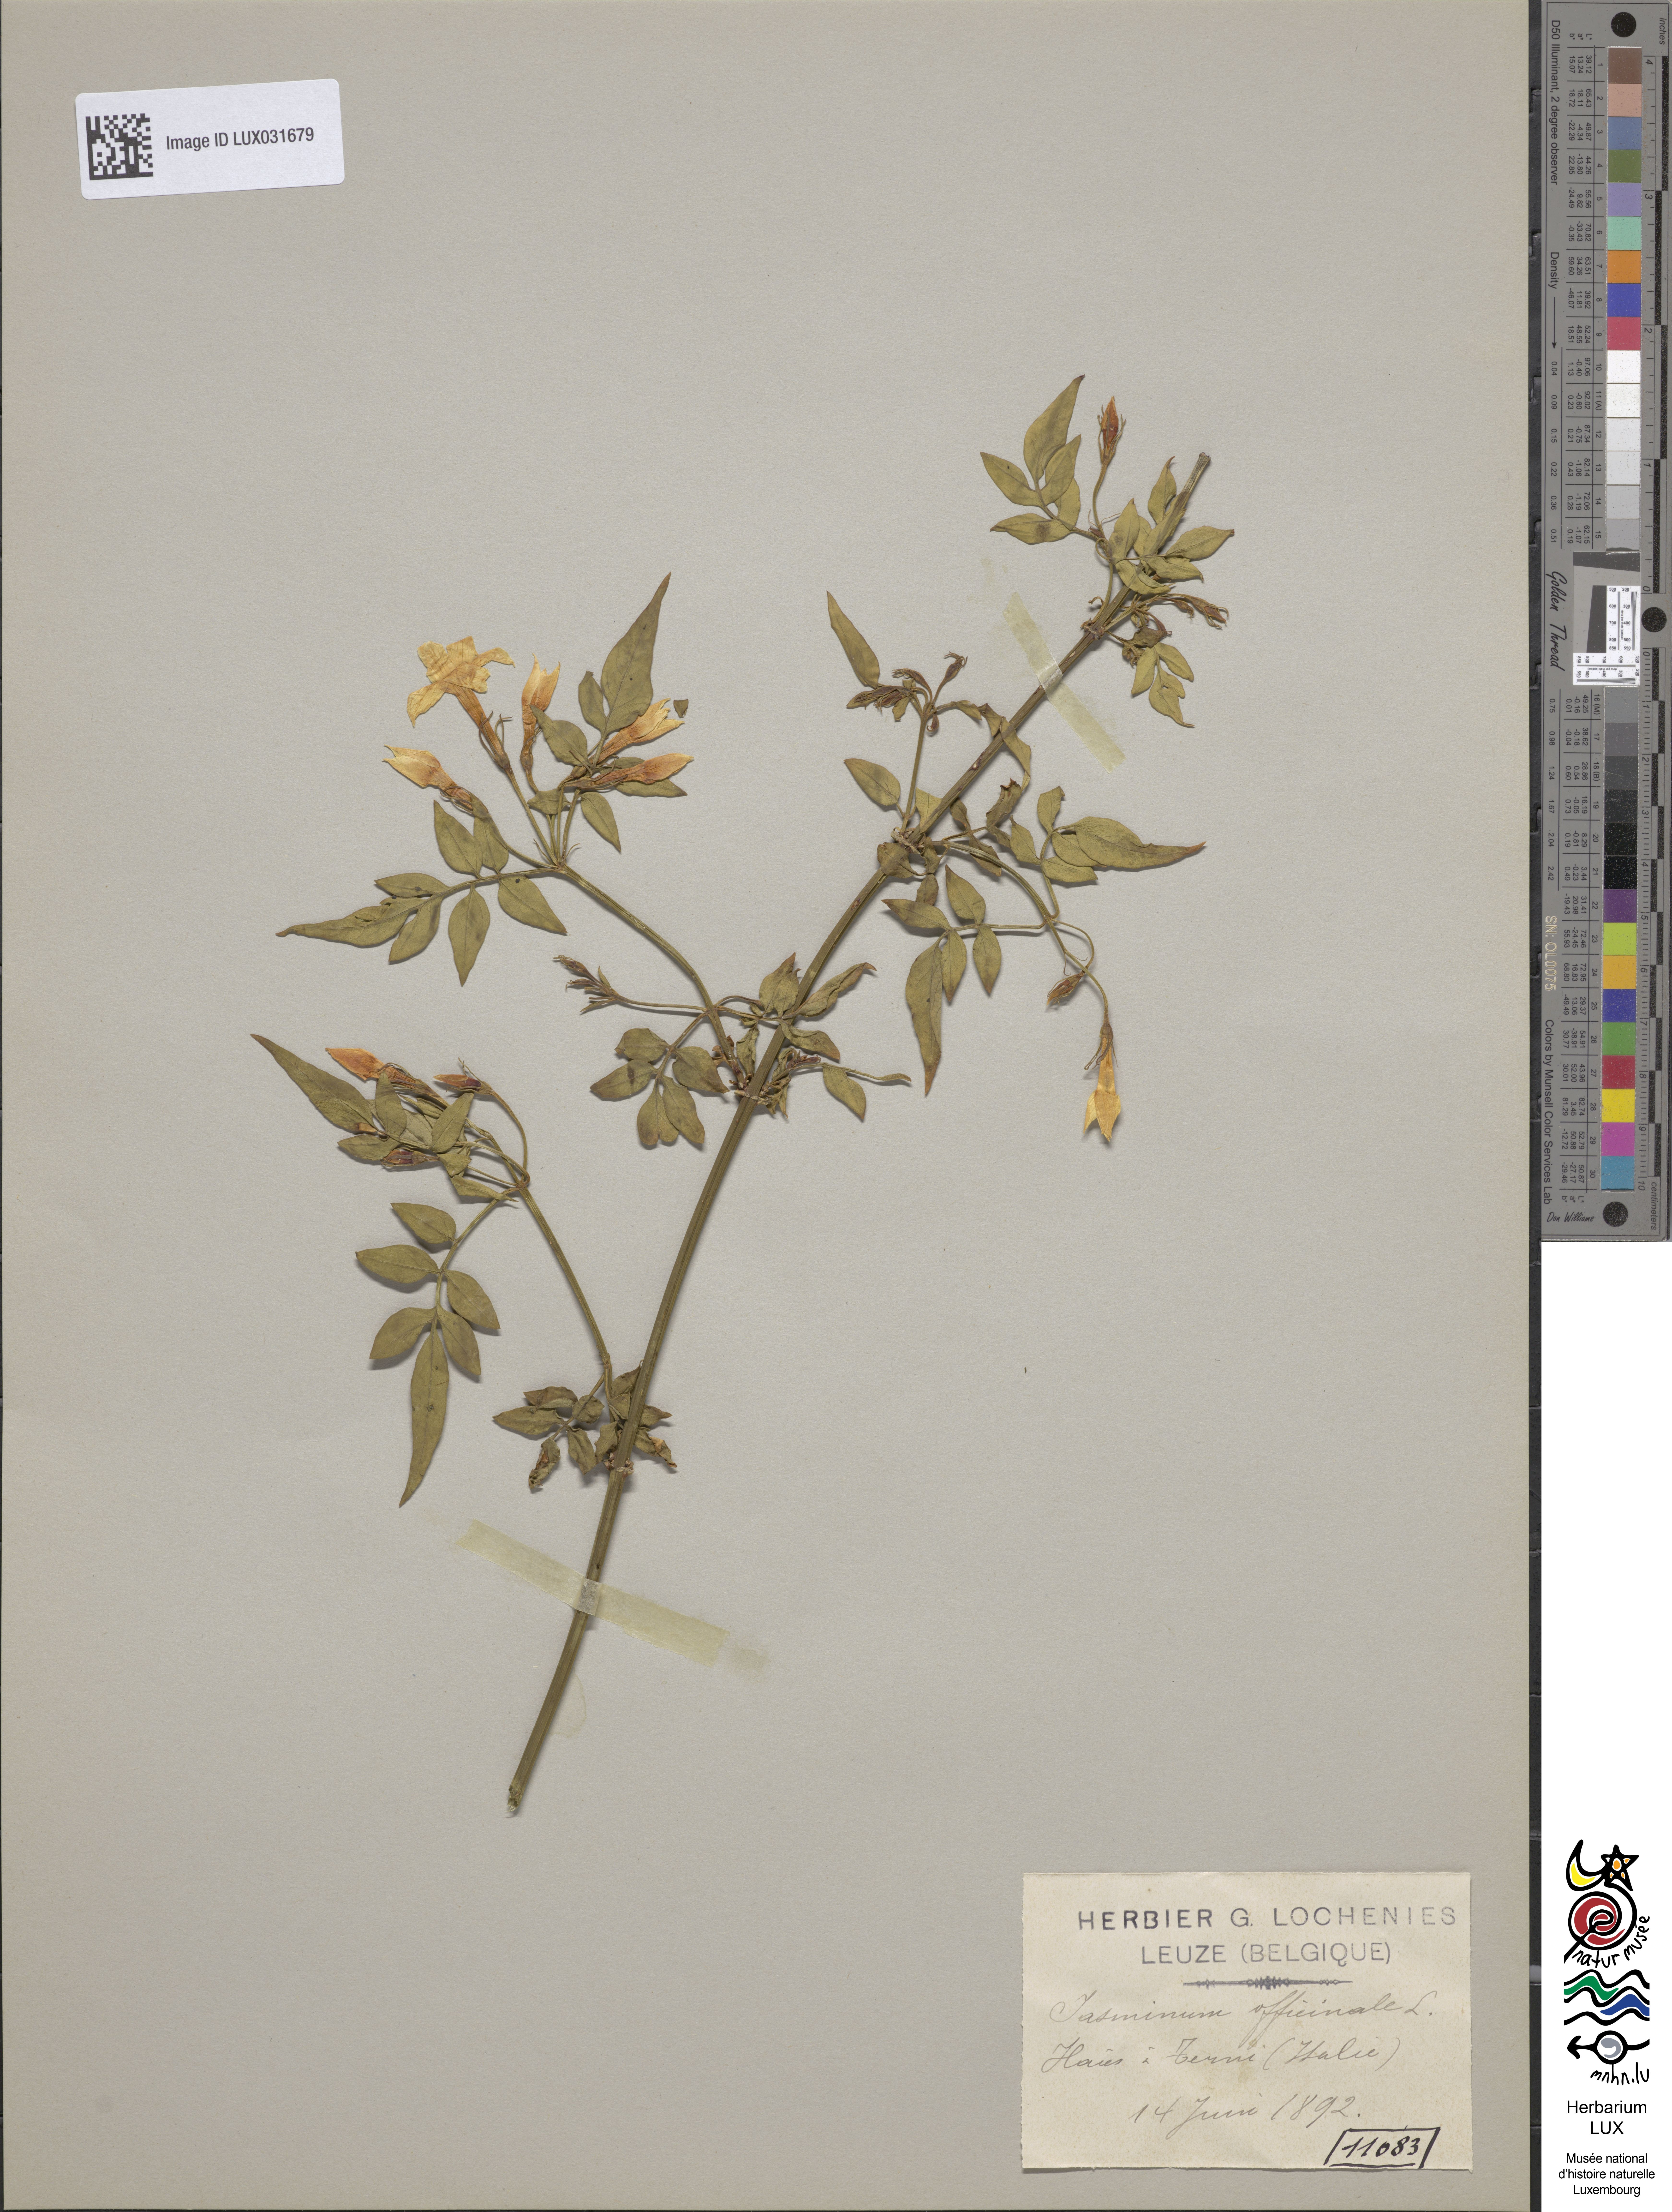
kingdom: Plantae
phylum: Tracheophyta
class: Magnoliopsida
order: Lamiales
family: Oleaceae
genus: Jasminum
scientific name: Jasminum officinale
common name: Summer jasmine
